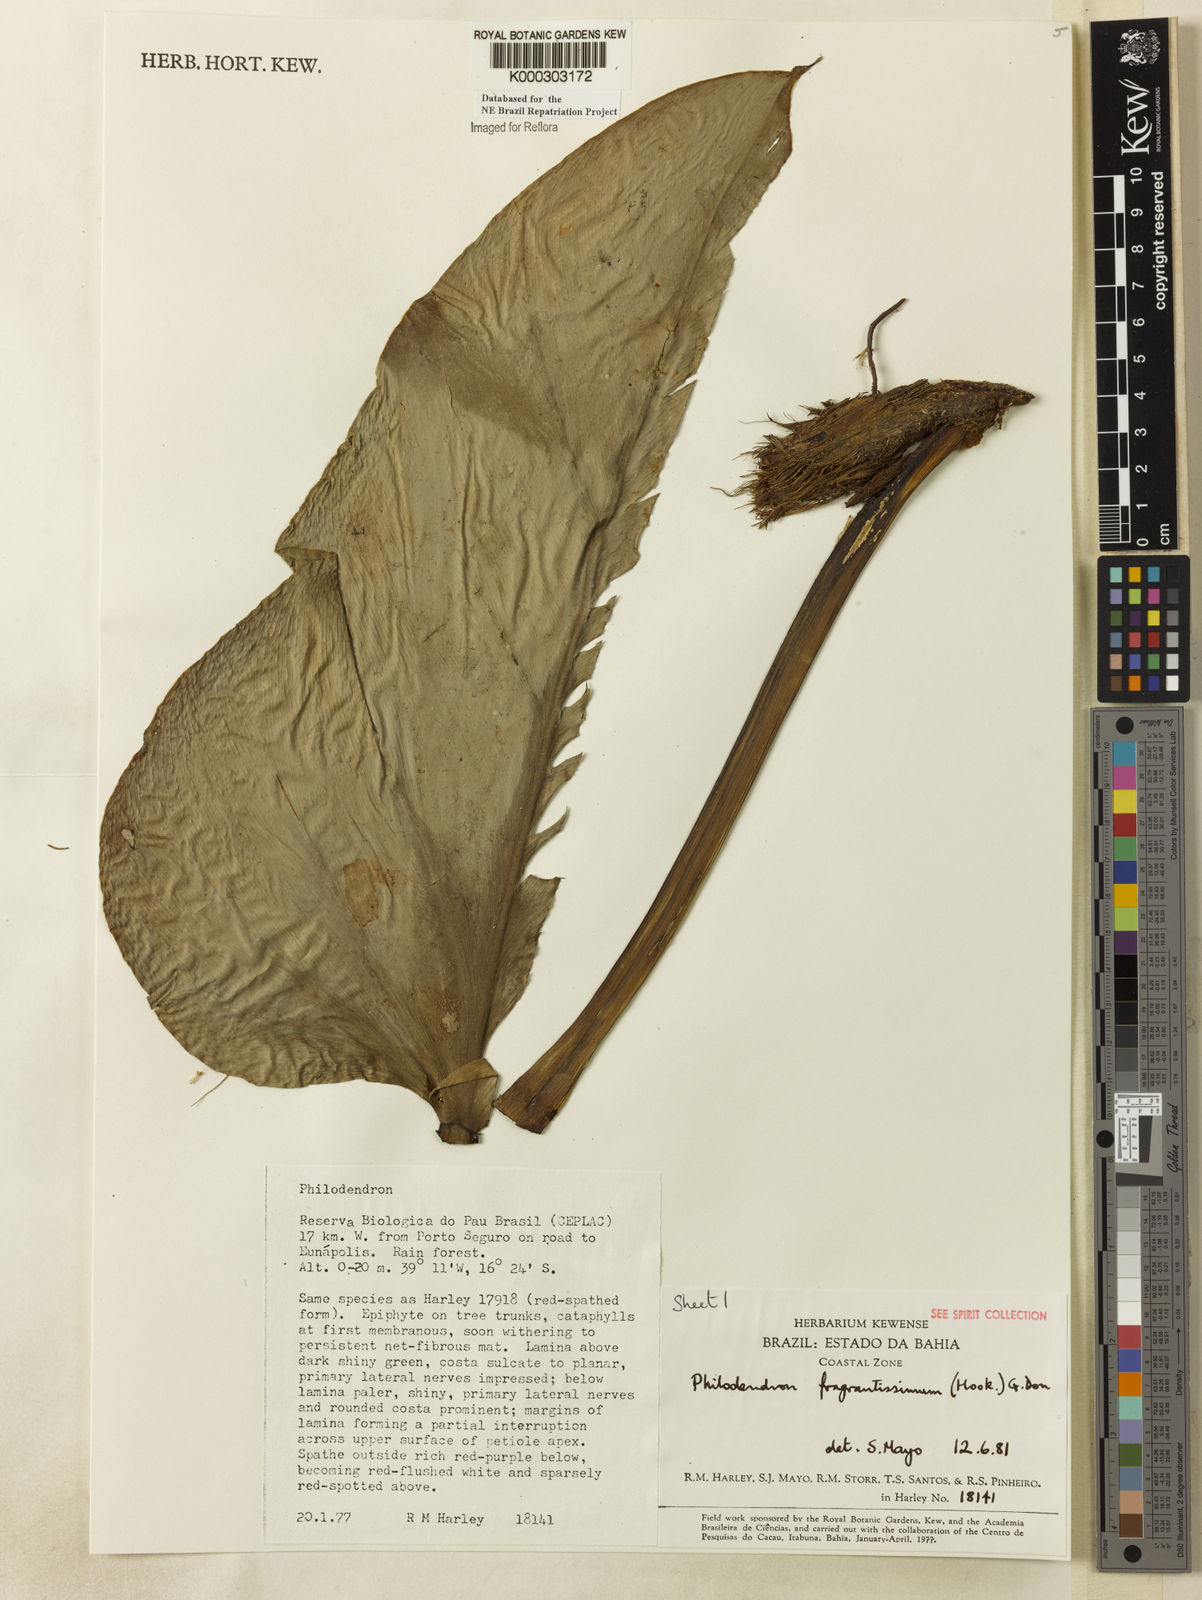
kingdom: Plantae
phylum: Tracheophyta
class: Liliopsida
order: Alismatales
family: Araceae
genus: Philodendron
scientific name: Philodendron fragrantissimum
